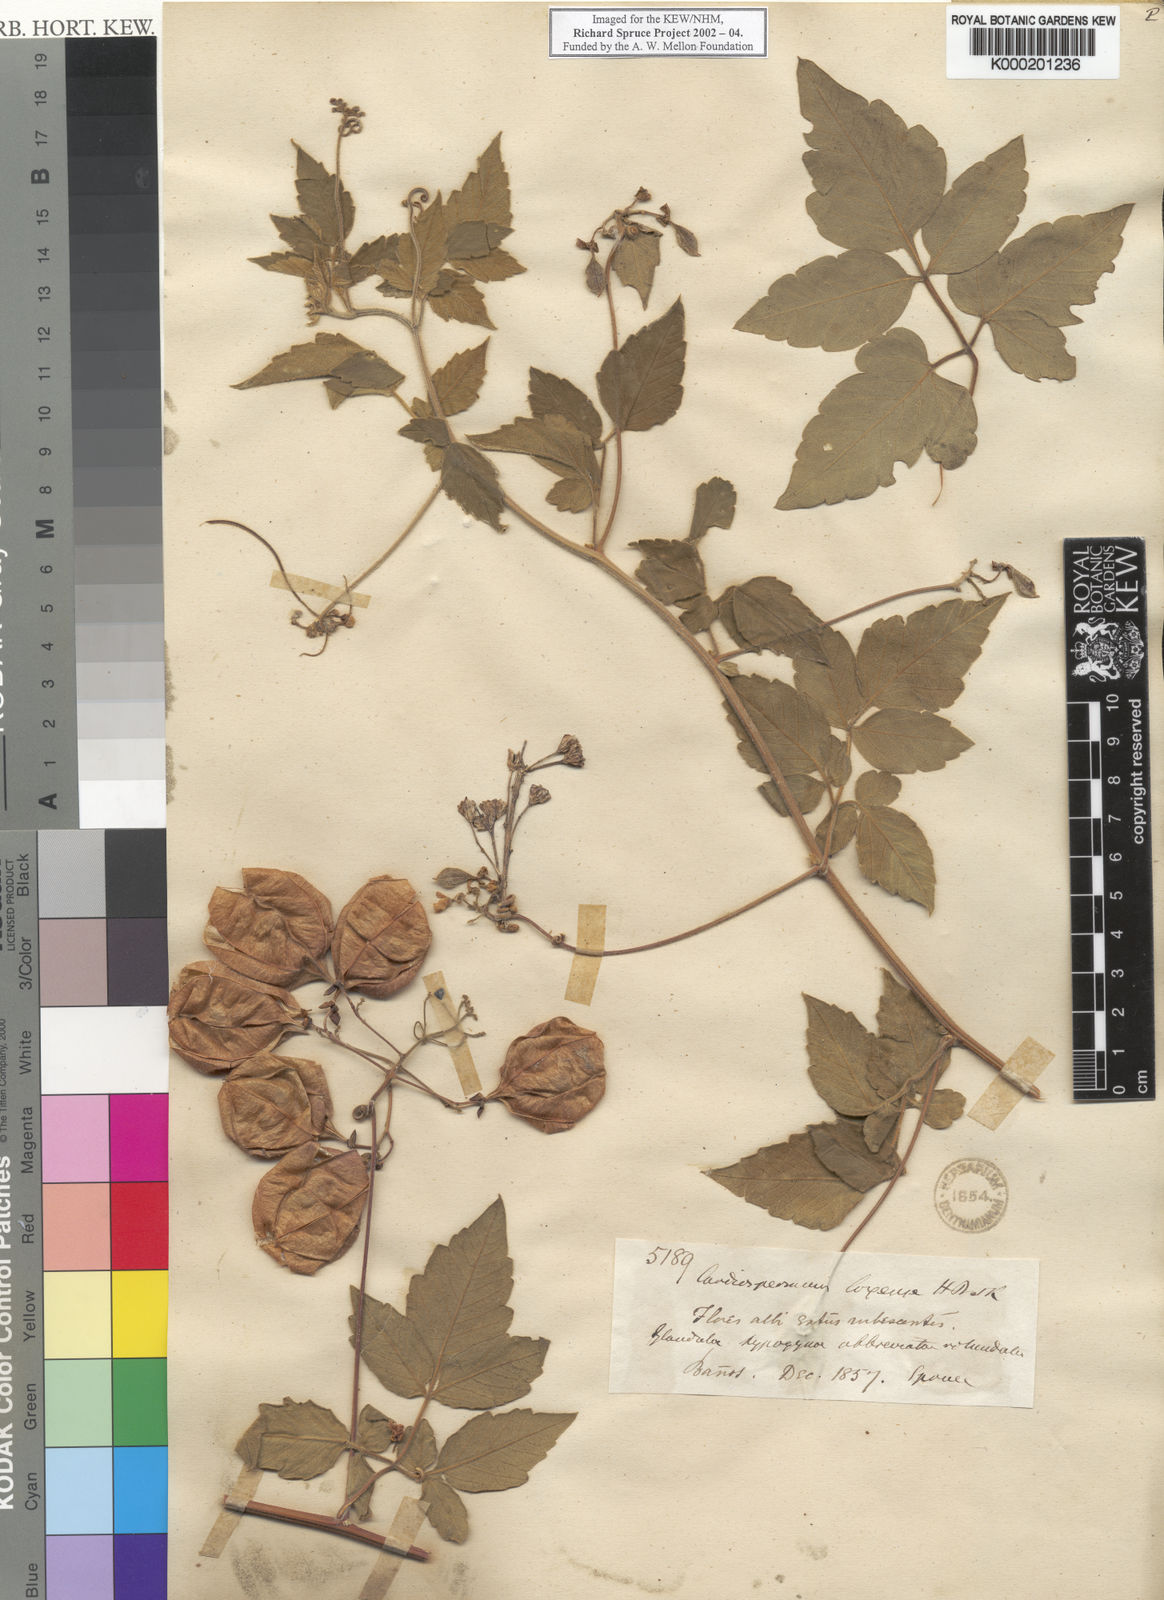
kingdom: Plantae
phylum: Tracheophyta
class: Magnoliopsida
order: Sapindales
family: Sapindaceae
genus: Cardiospermum
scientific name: Cardiospermum corindum
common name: Faux persil
